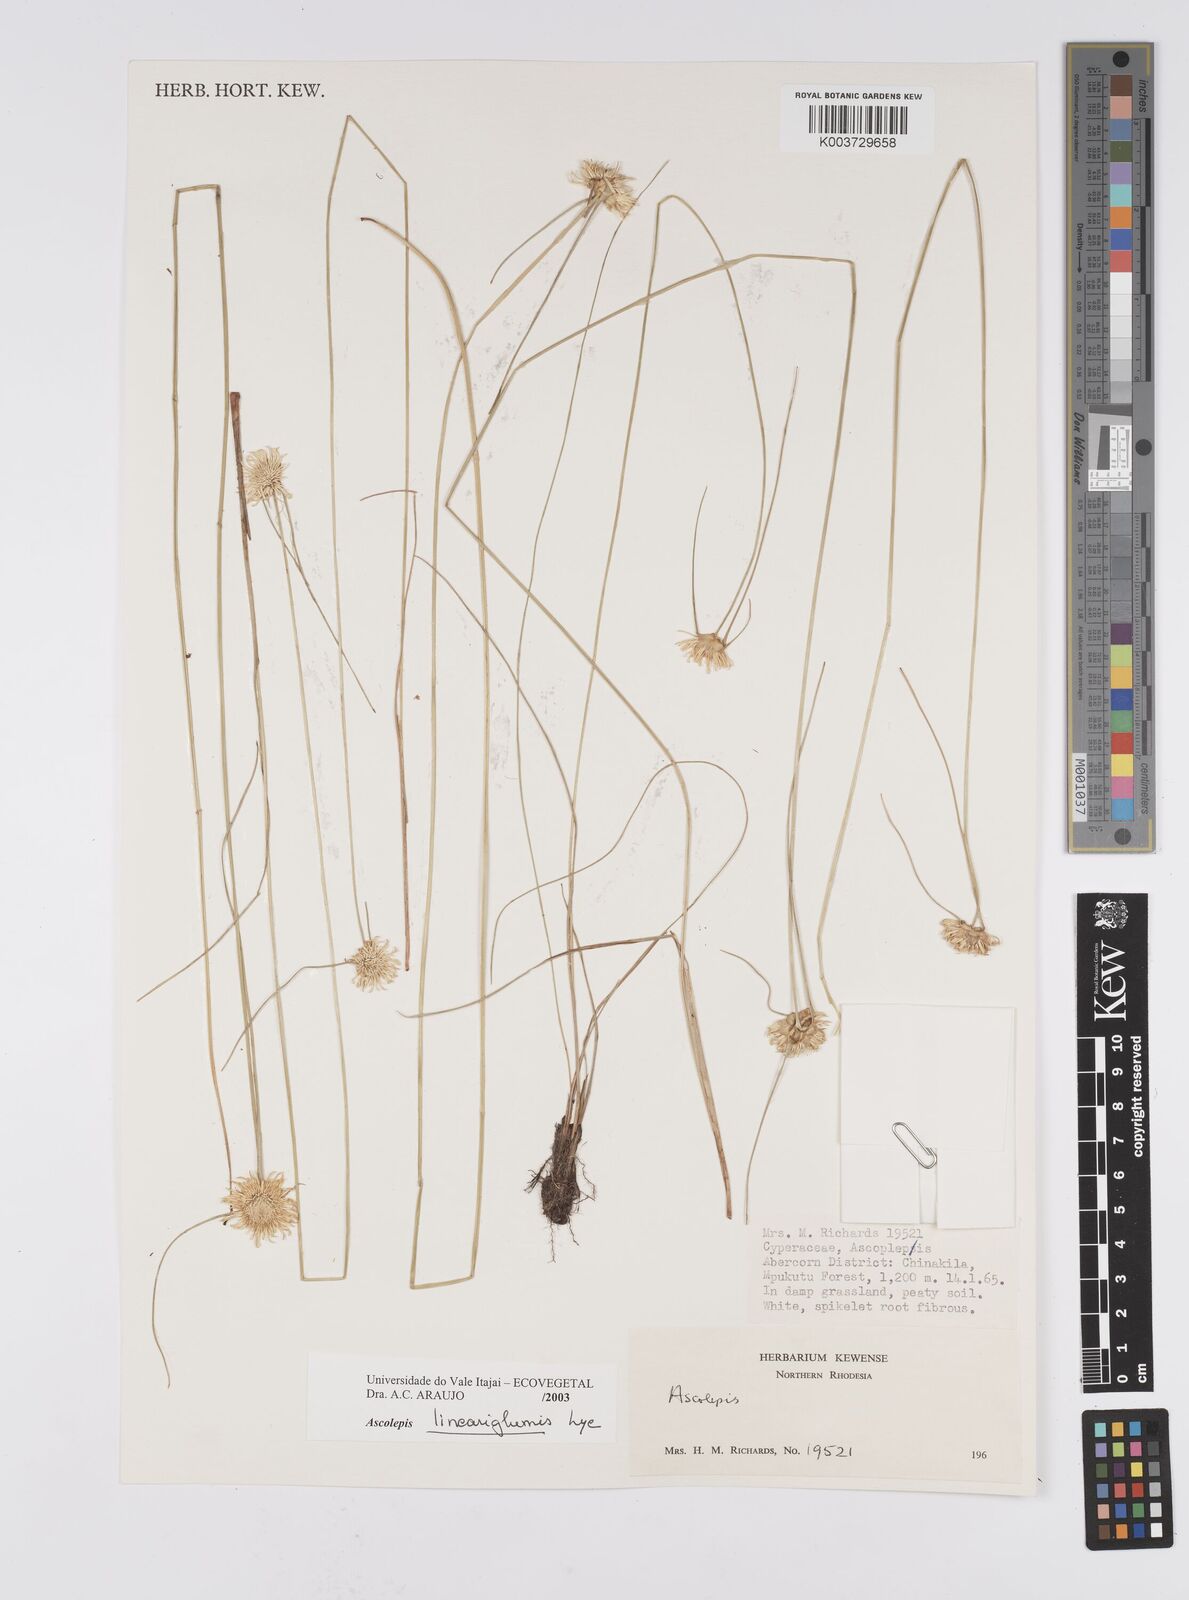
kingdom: Plantae
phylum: Tracheophyta
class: Liliopsida
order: Poales
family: Cyperaceae
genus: Cyperus
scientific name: Cyperus
